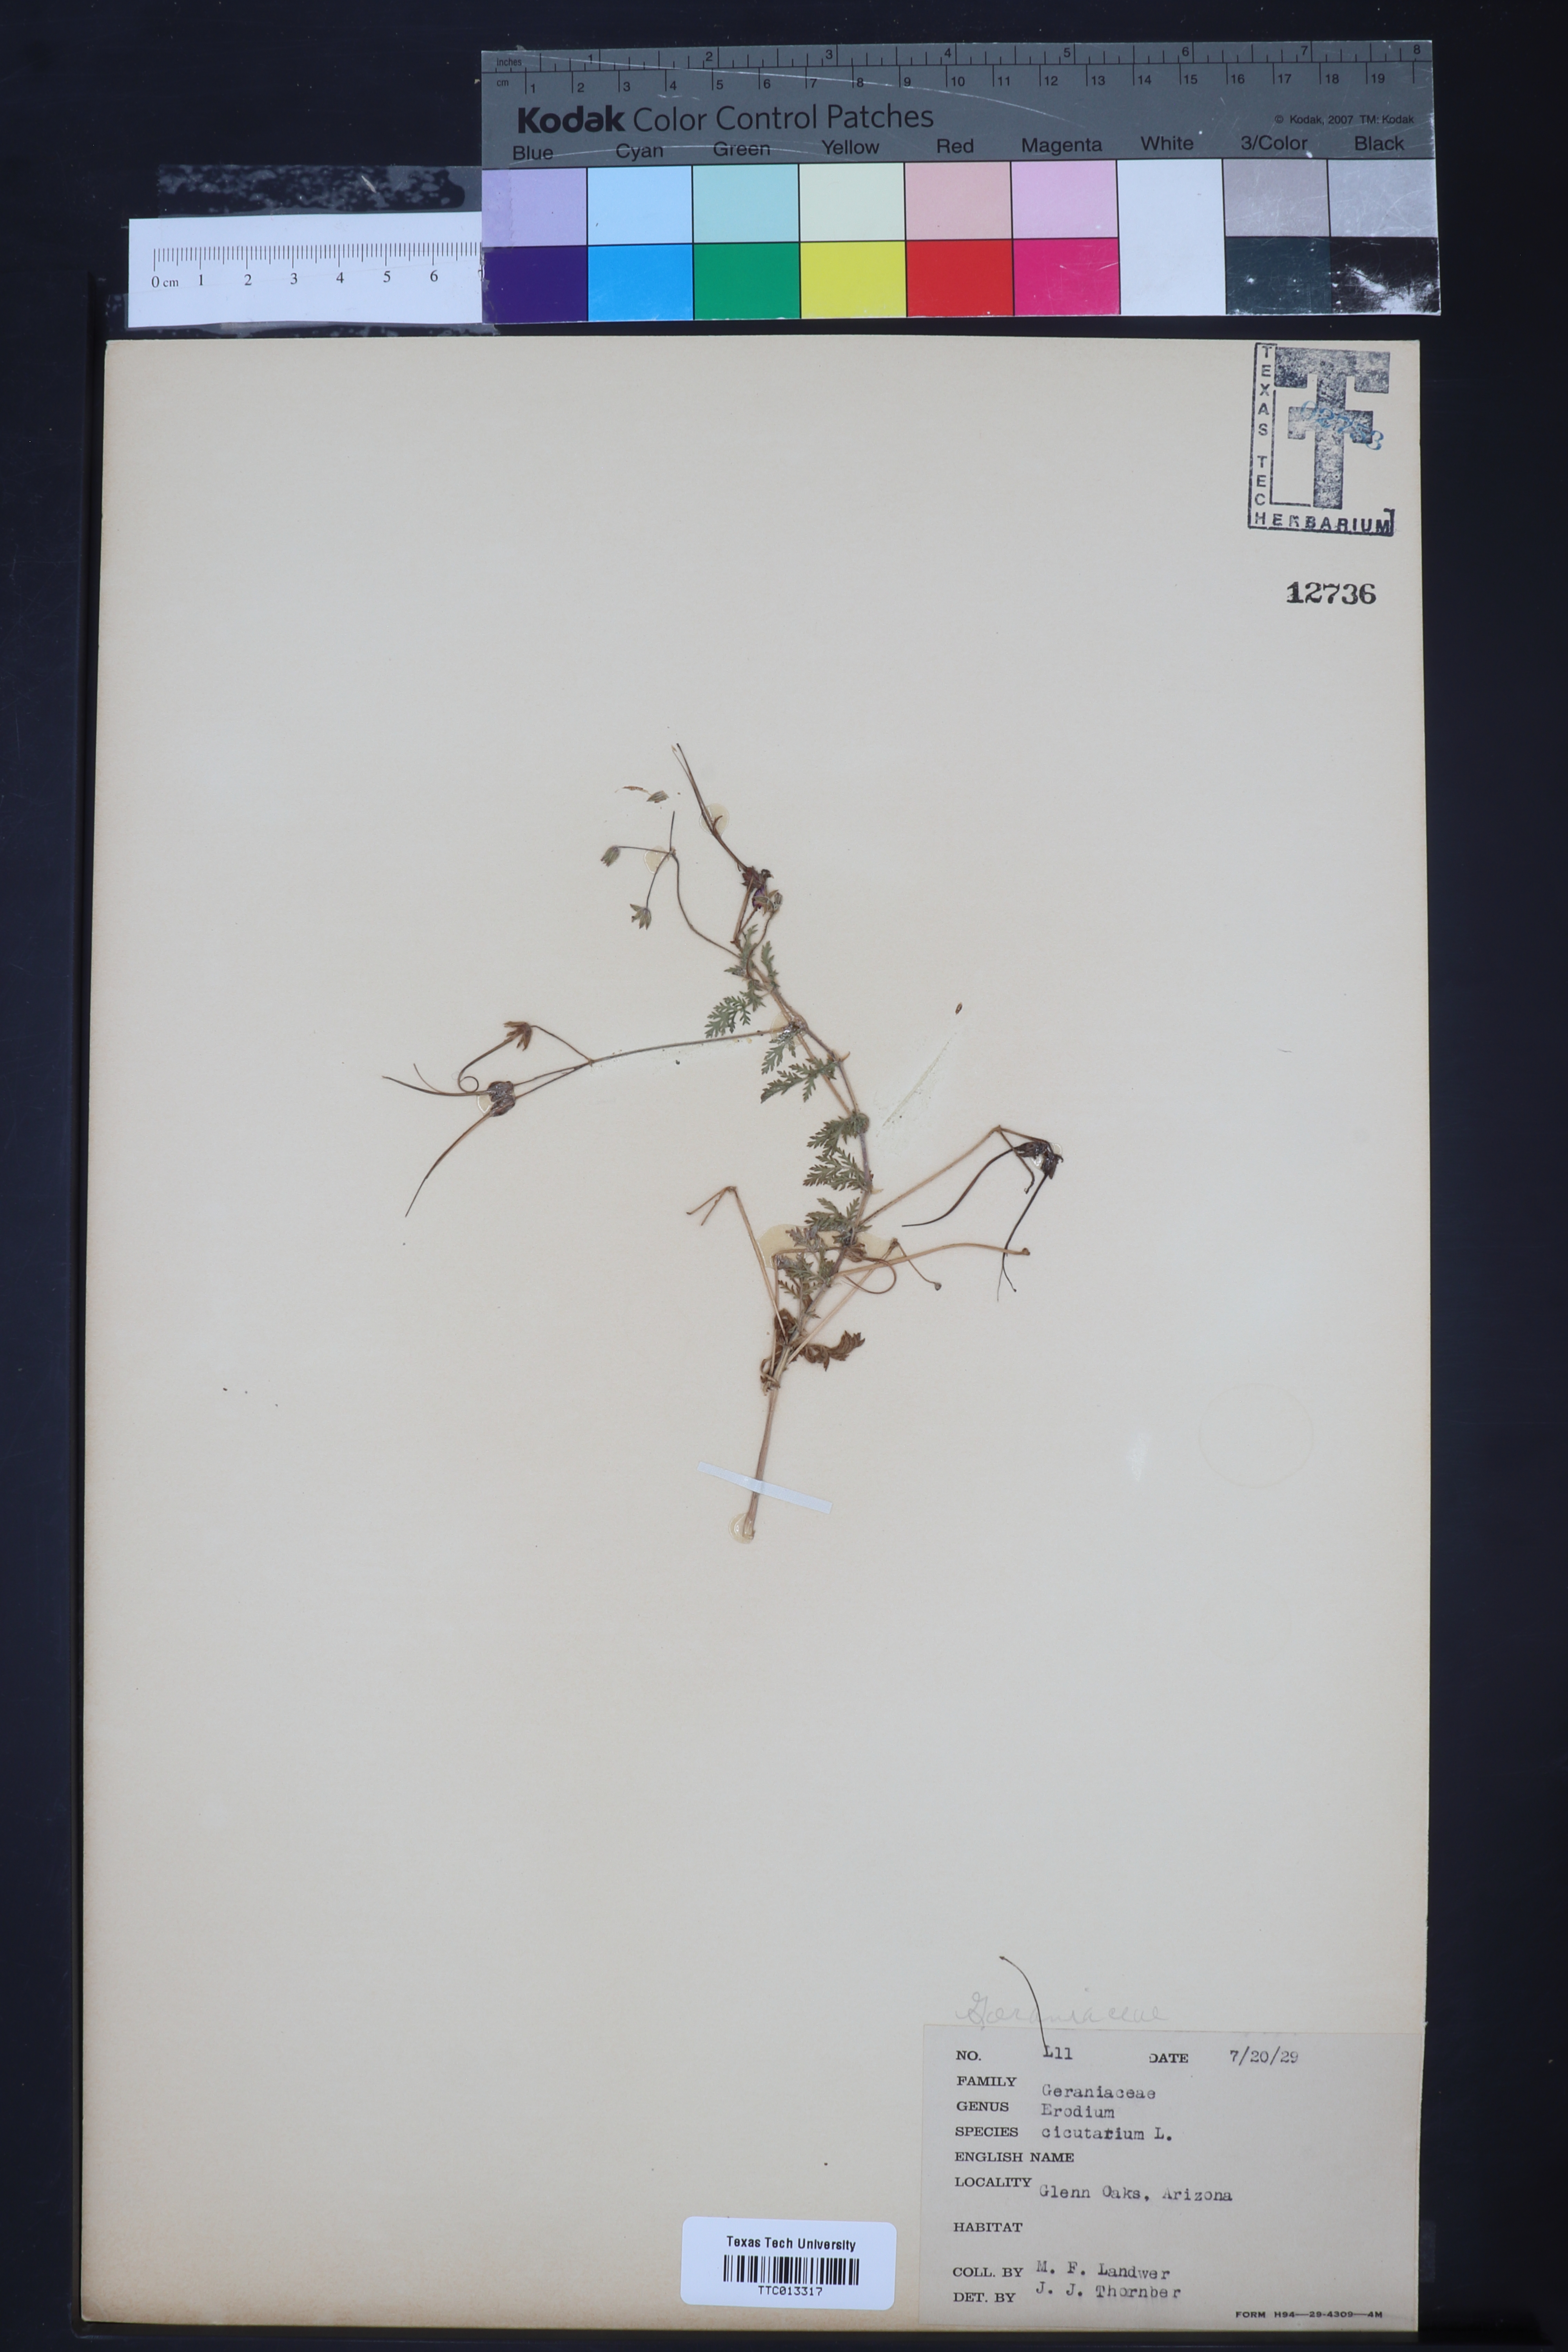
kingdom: Plantae
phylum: Tracheophyta
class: Magnoliopsida
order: Geraniales
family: Geraniaceae
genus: Erodium
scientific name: Erodium cicutarium
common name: Common stork's-bill
